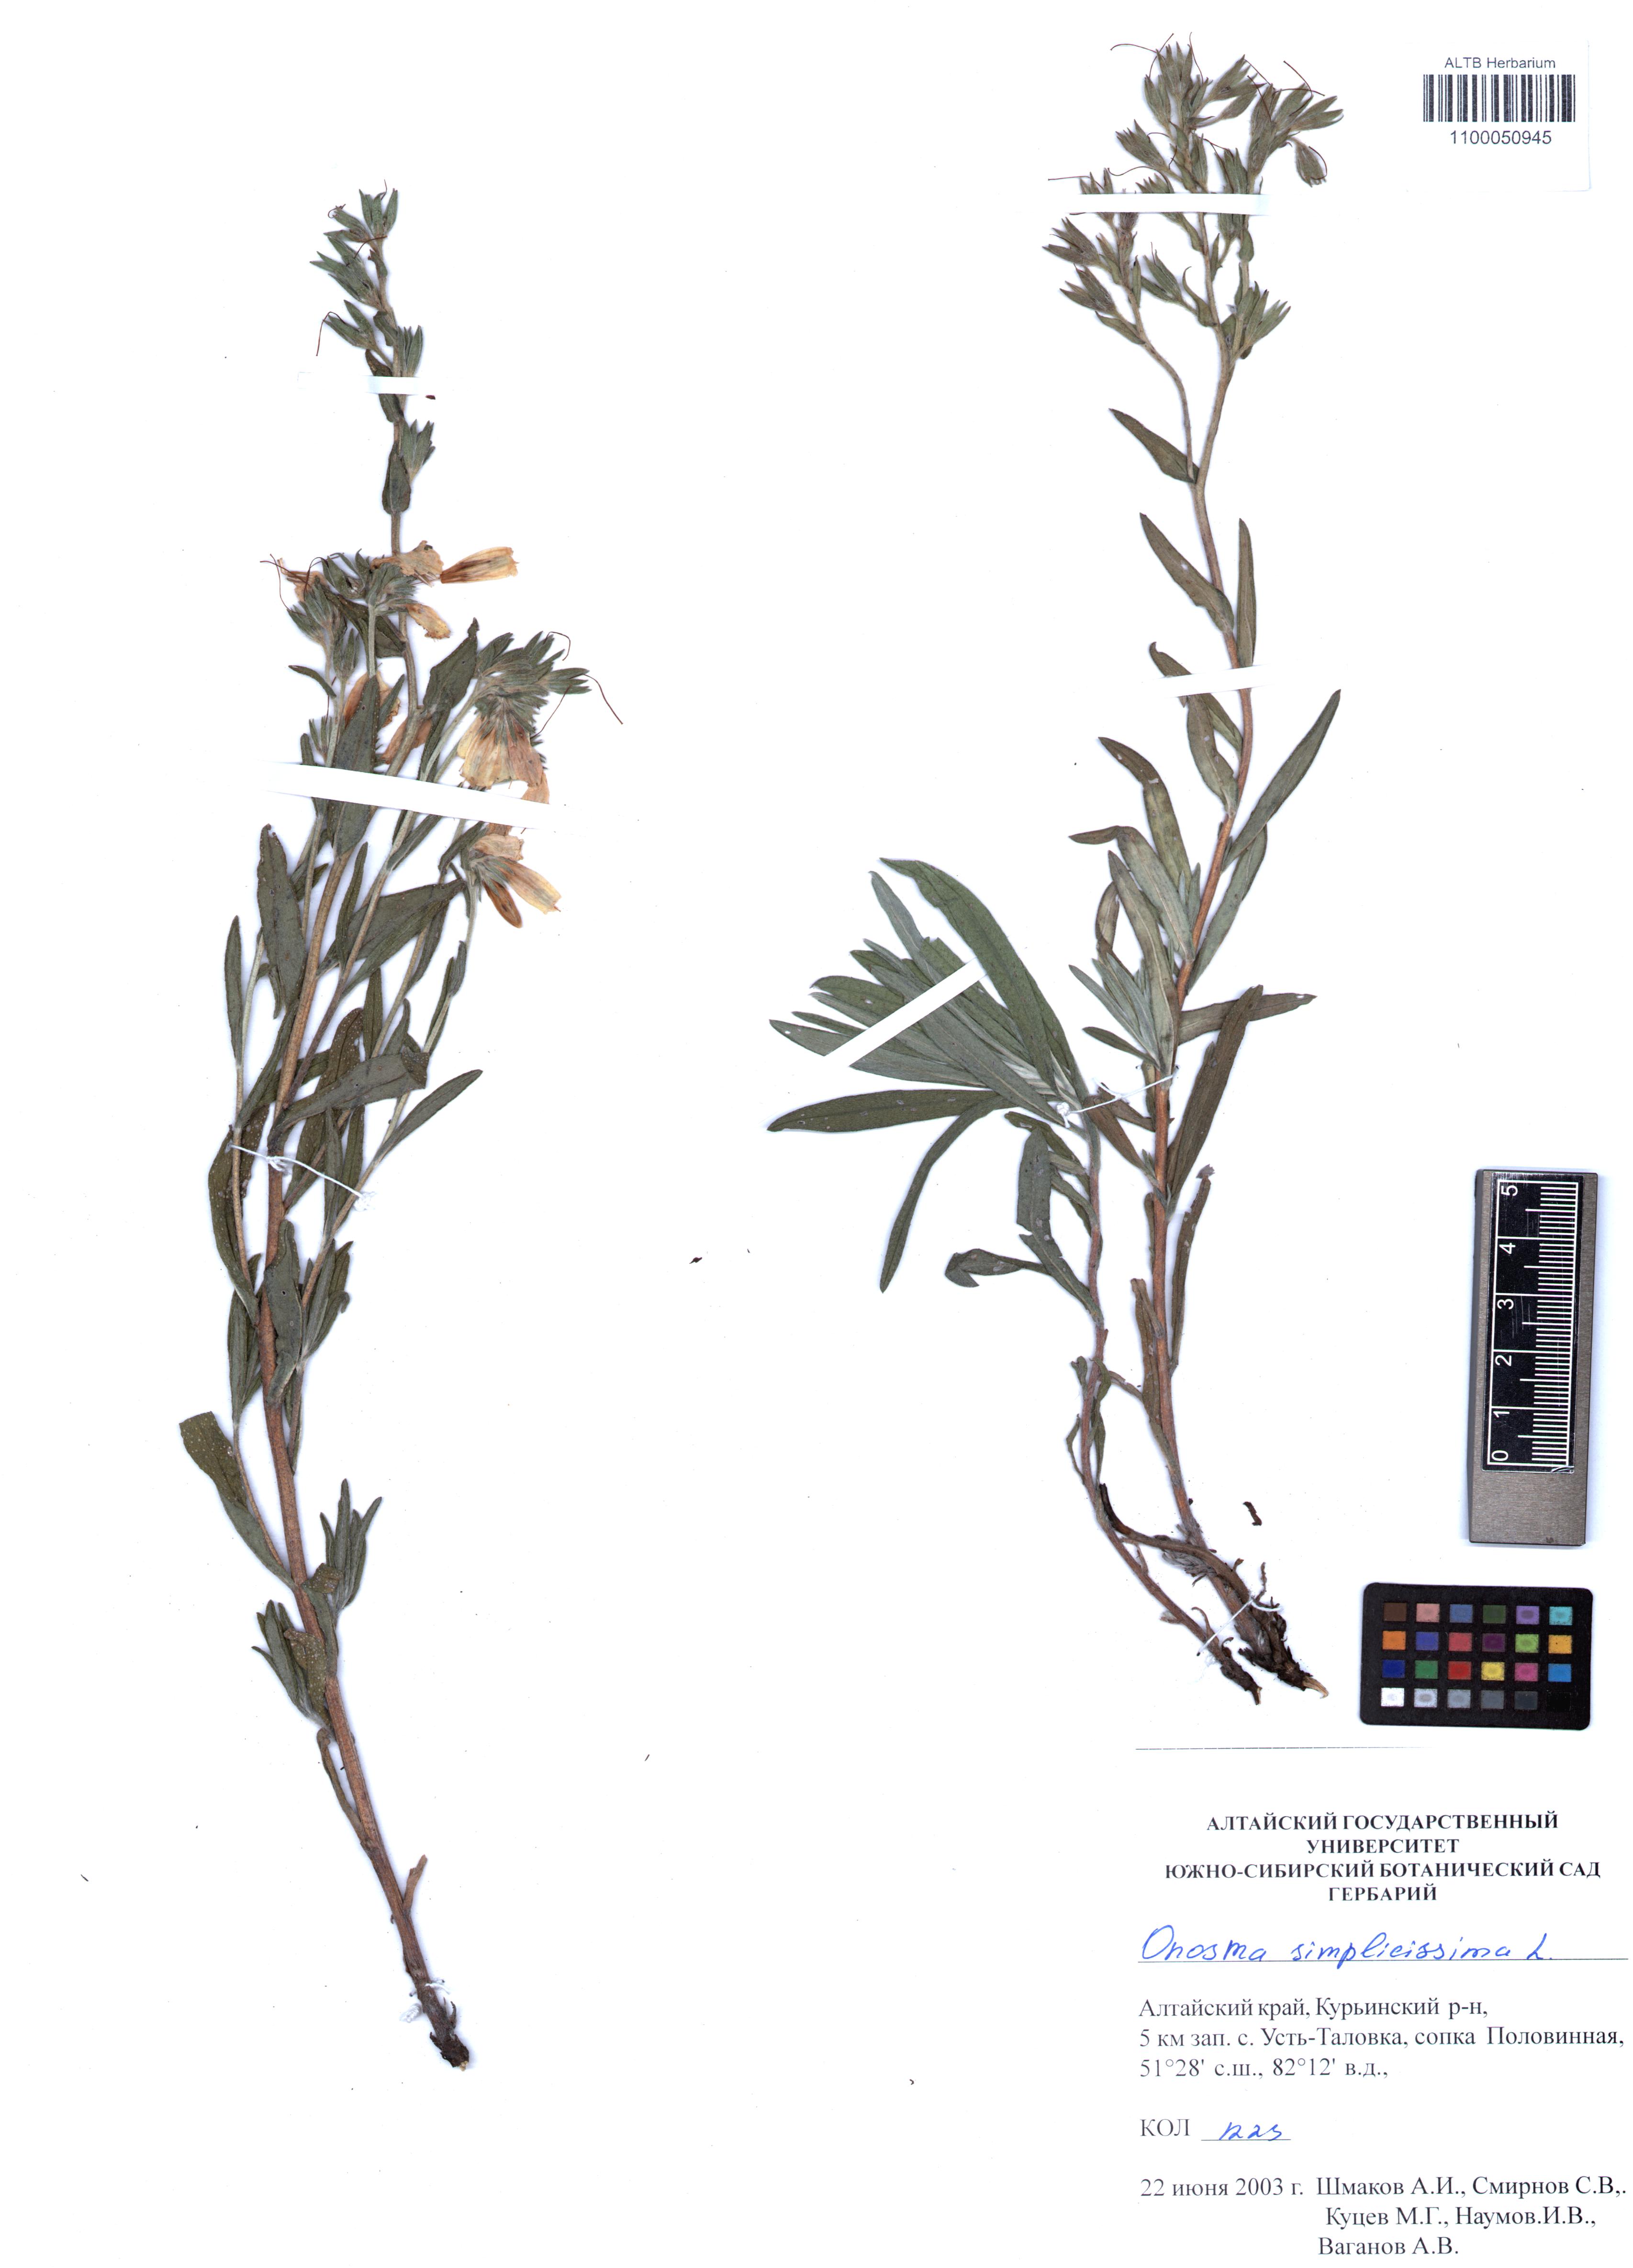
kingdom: Plantae
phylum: Tracheophyta
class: Magnoliopsida
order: Boraginales
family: Boraginaceae
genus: Onosma
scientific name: Onosma simplicissima
